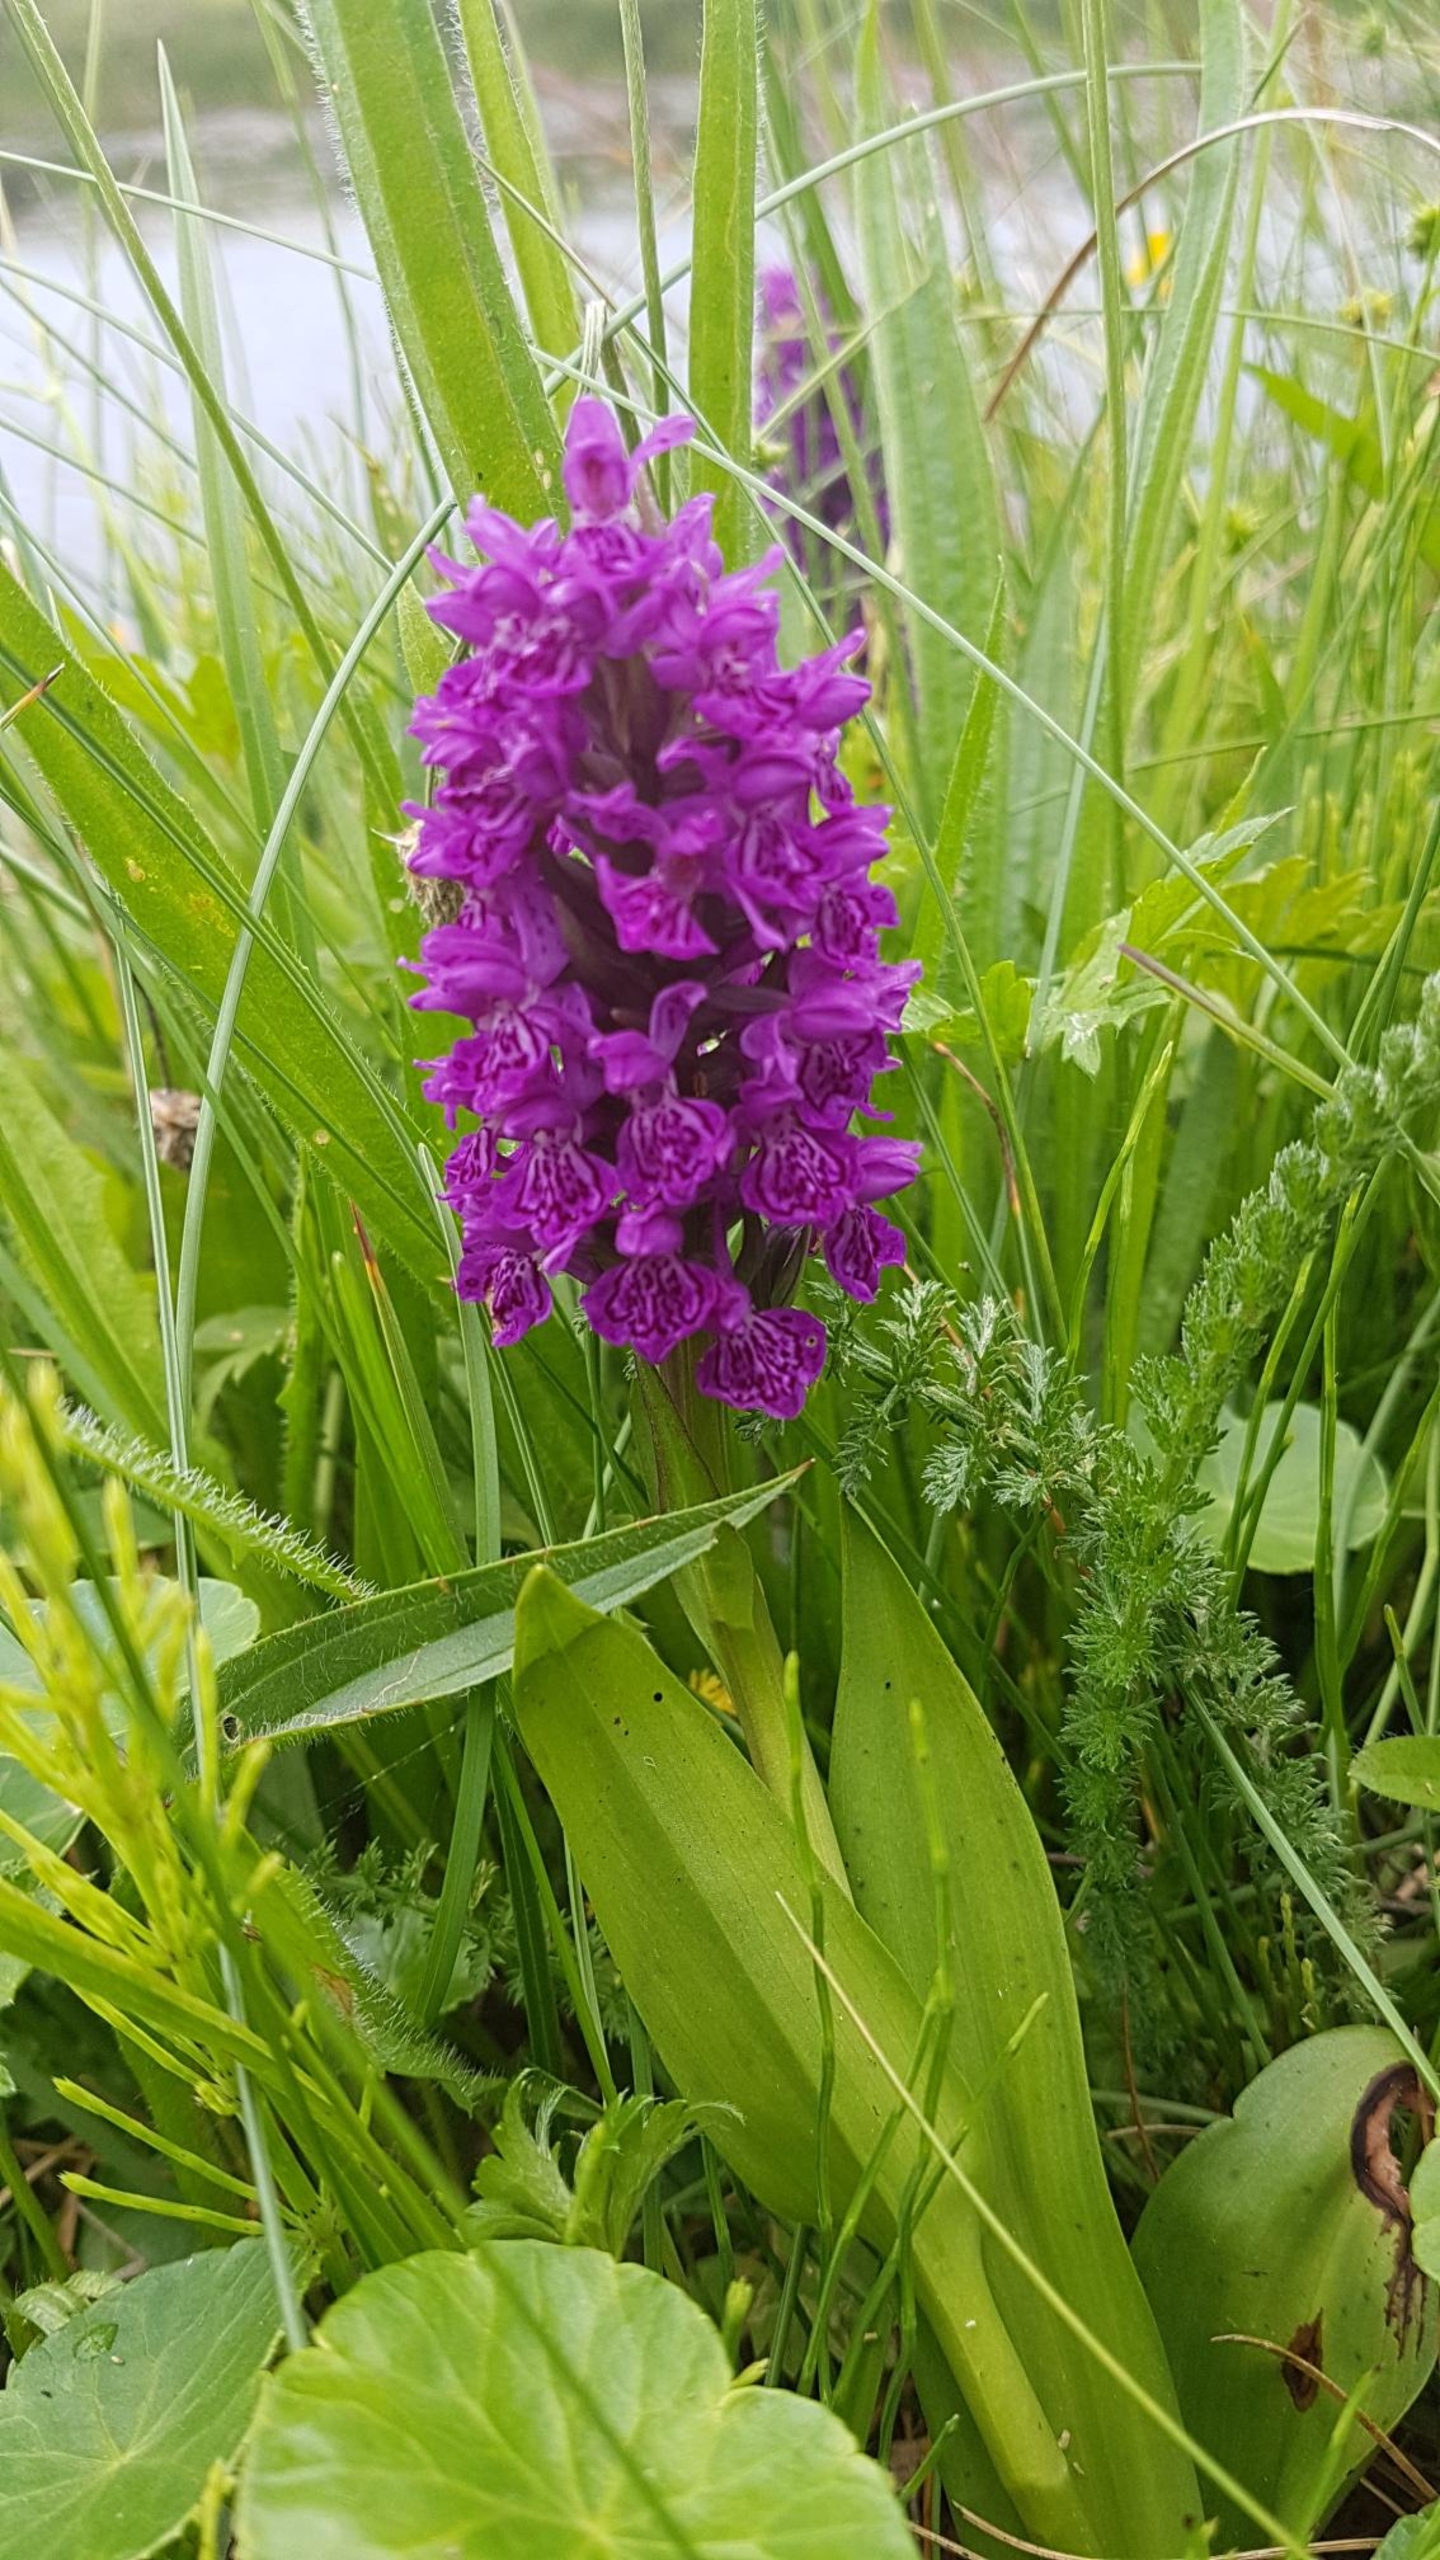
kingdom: Plantae
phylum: Tracheophyta
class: Liliopsida
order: Asparagales
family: Orchidaceae
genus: Dactylorhiza
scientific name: Dactylorhiza majalis
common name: Purpur-gøgeurt
